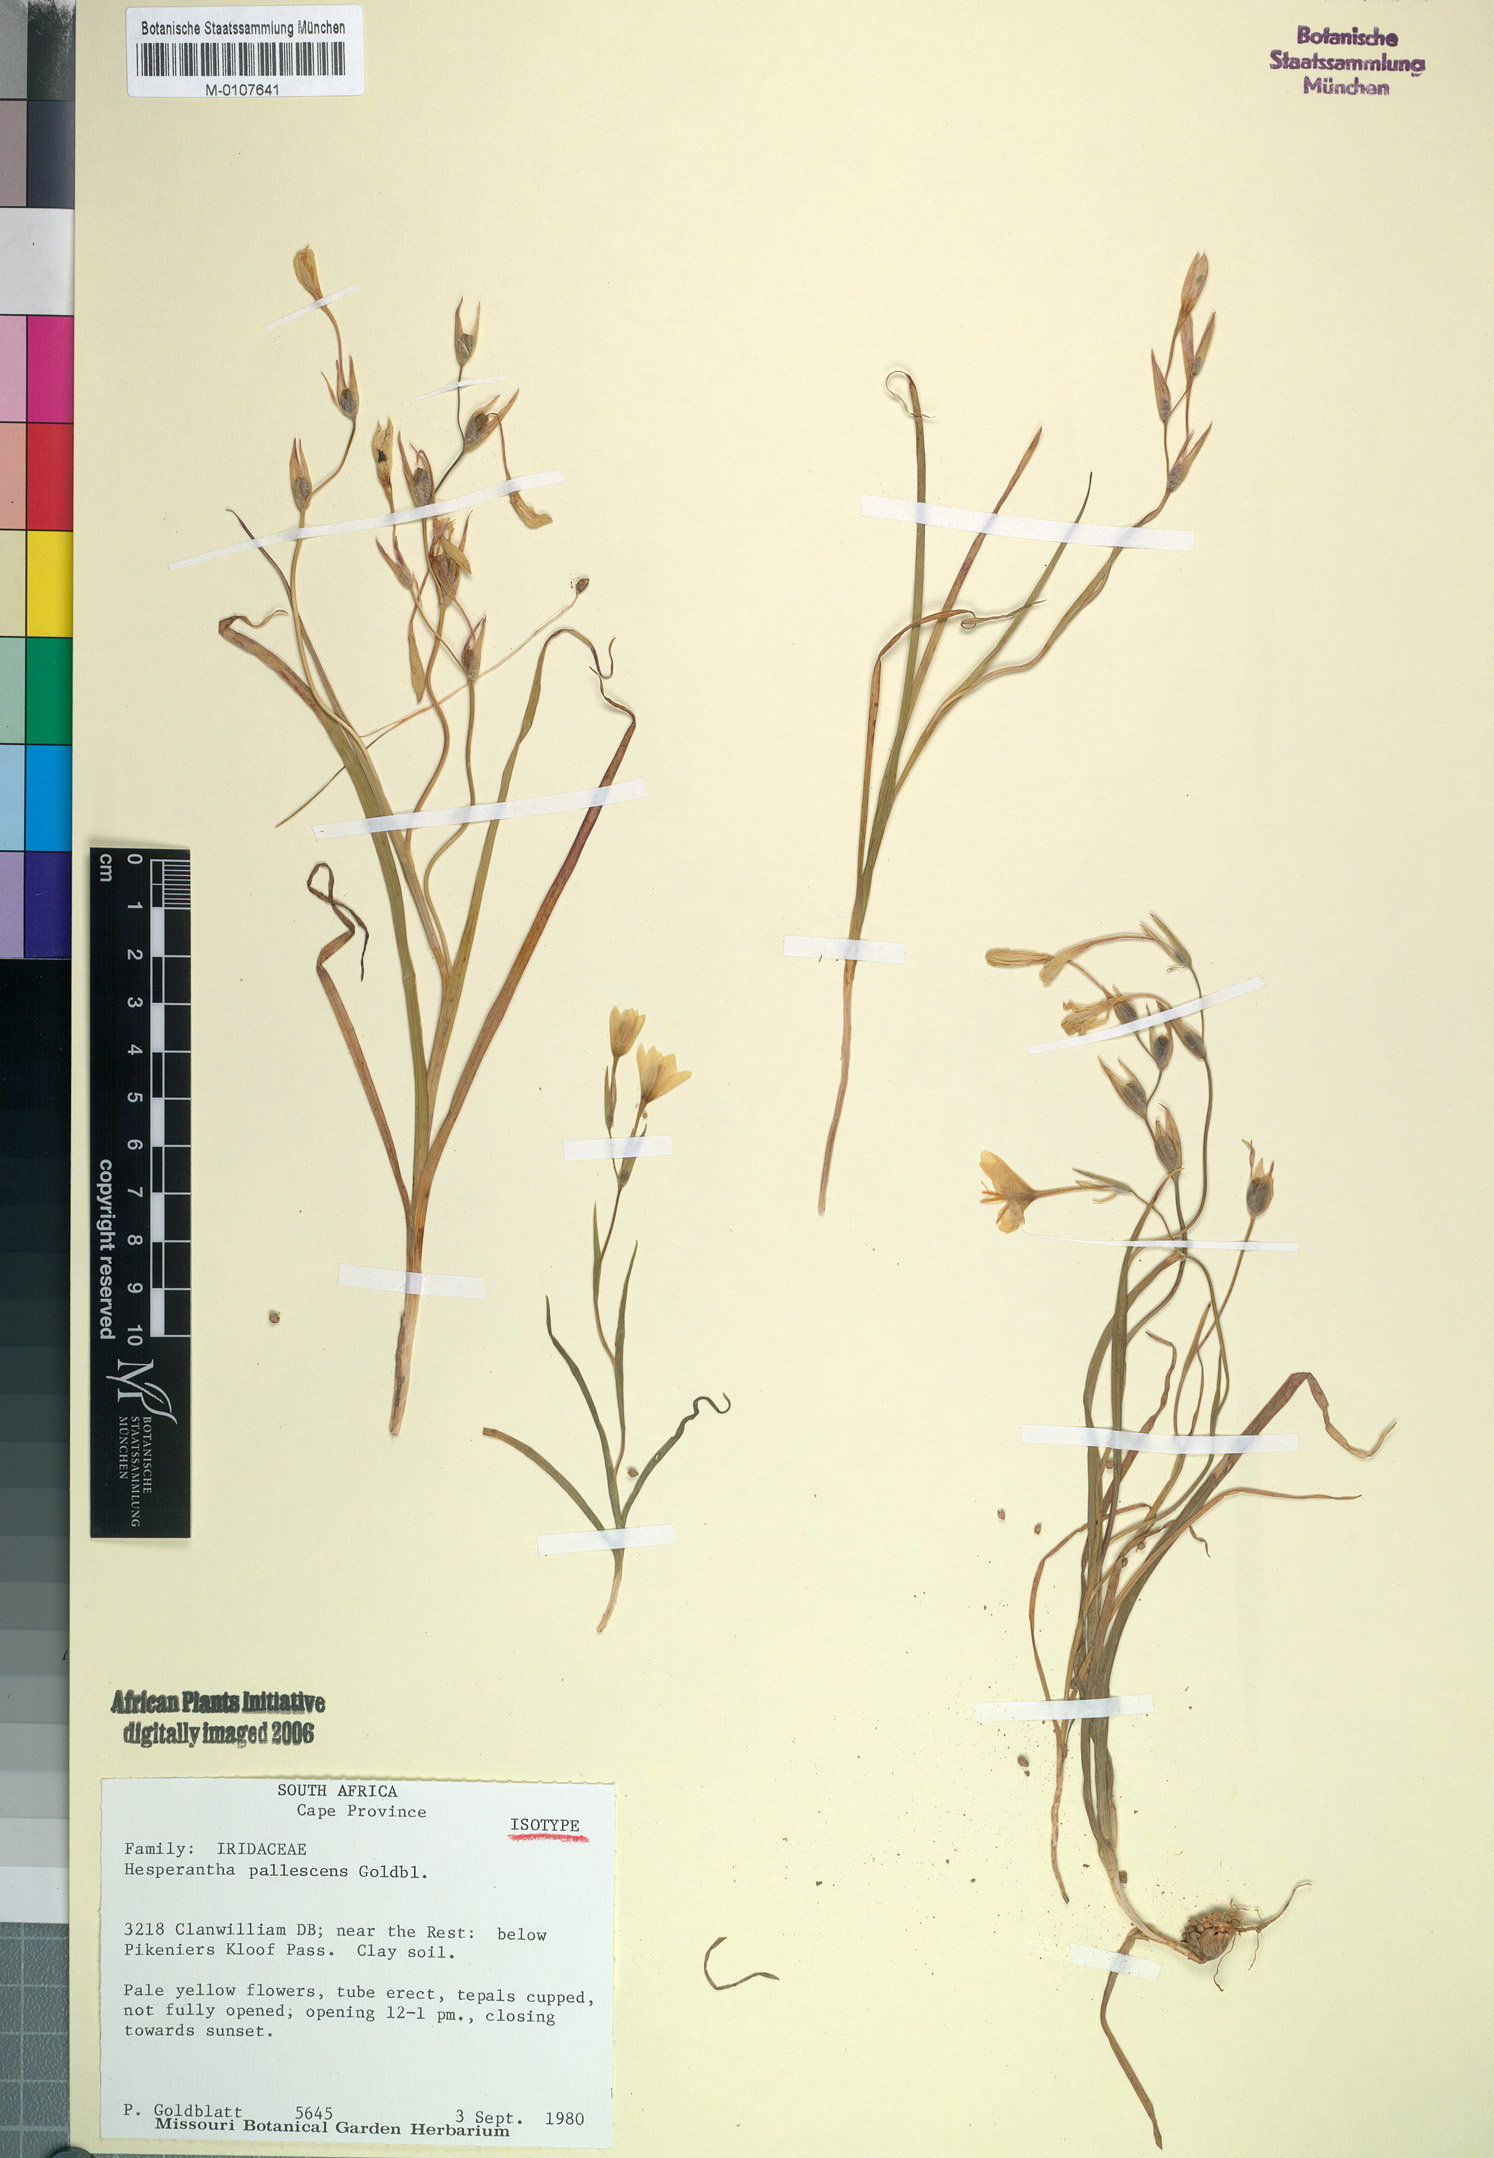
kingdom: Plantae
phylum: Tracheophyta
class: Liliopsida
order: Asparagales
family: Iridaceae
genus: Hesperantha
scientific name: Hesperantha pallescens
